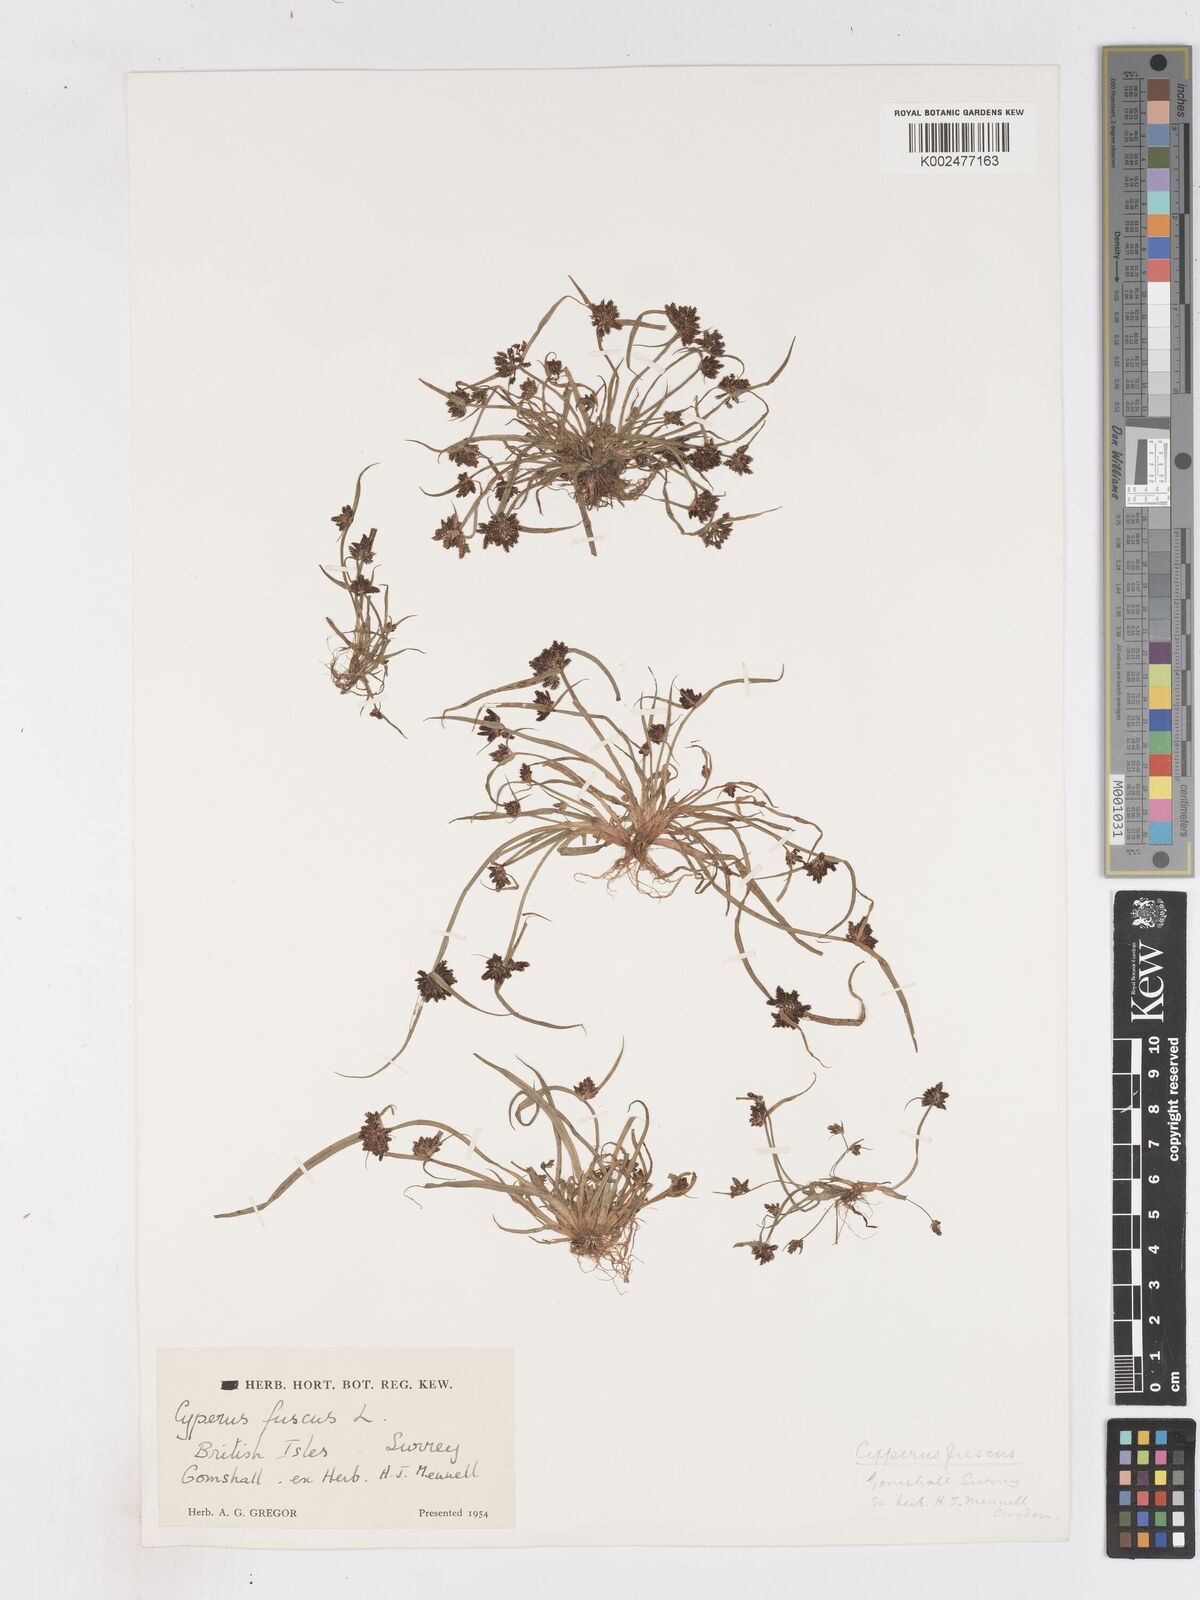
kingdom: Plantae
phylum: Tracheophyta
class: Liliopsida
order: Poales
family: Cyperaceae
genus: Cyperus
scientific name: Cyperus fuscus
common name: Brown galingale
